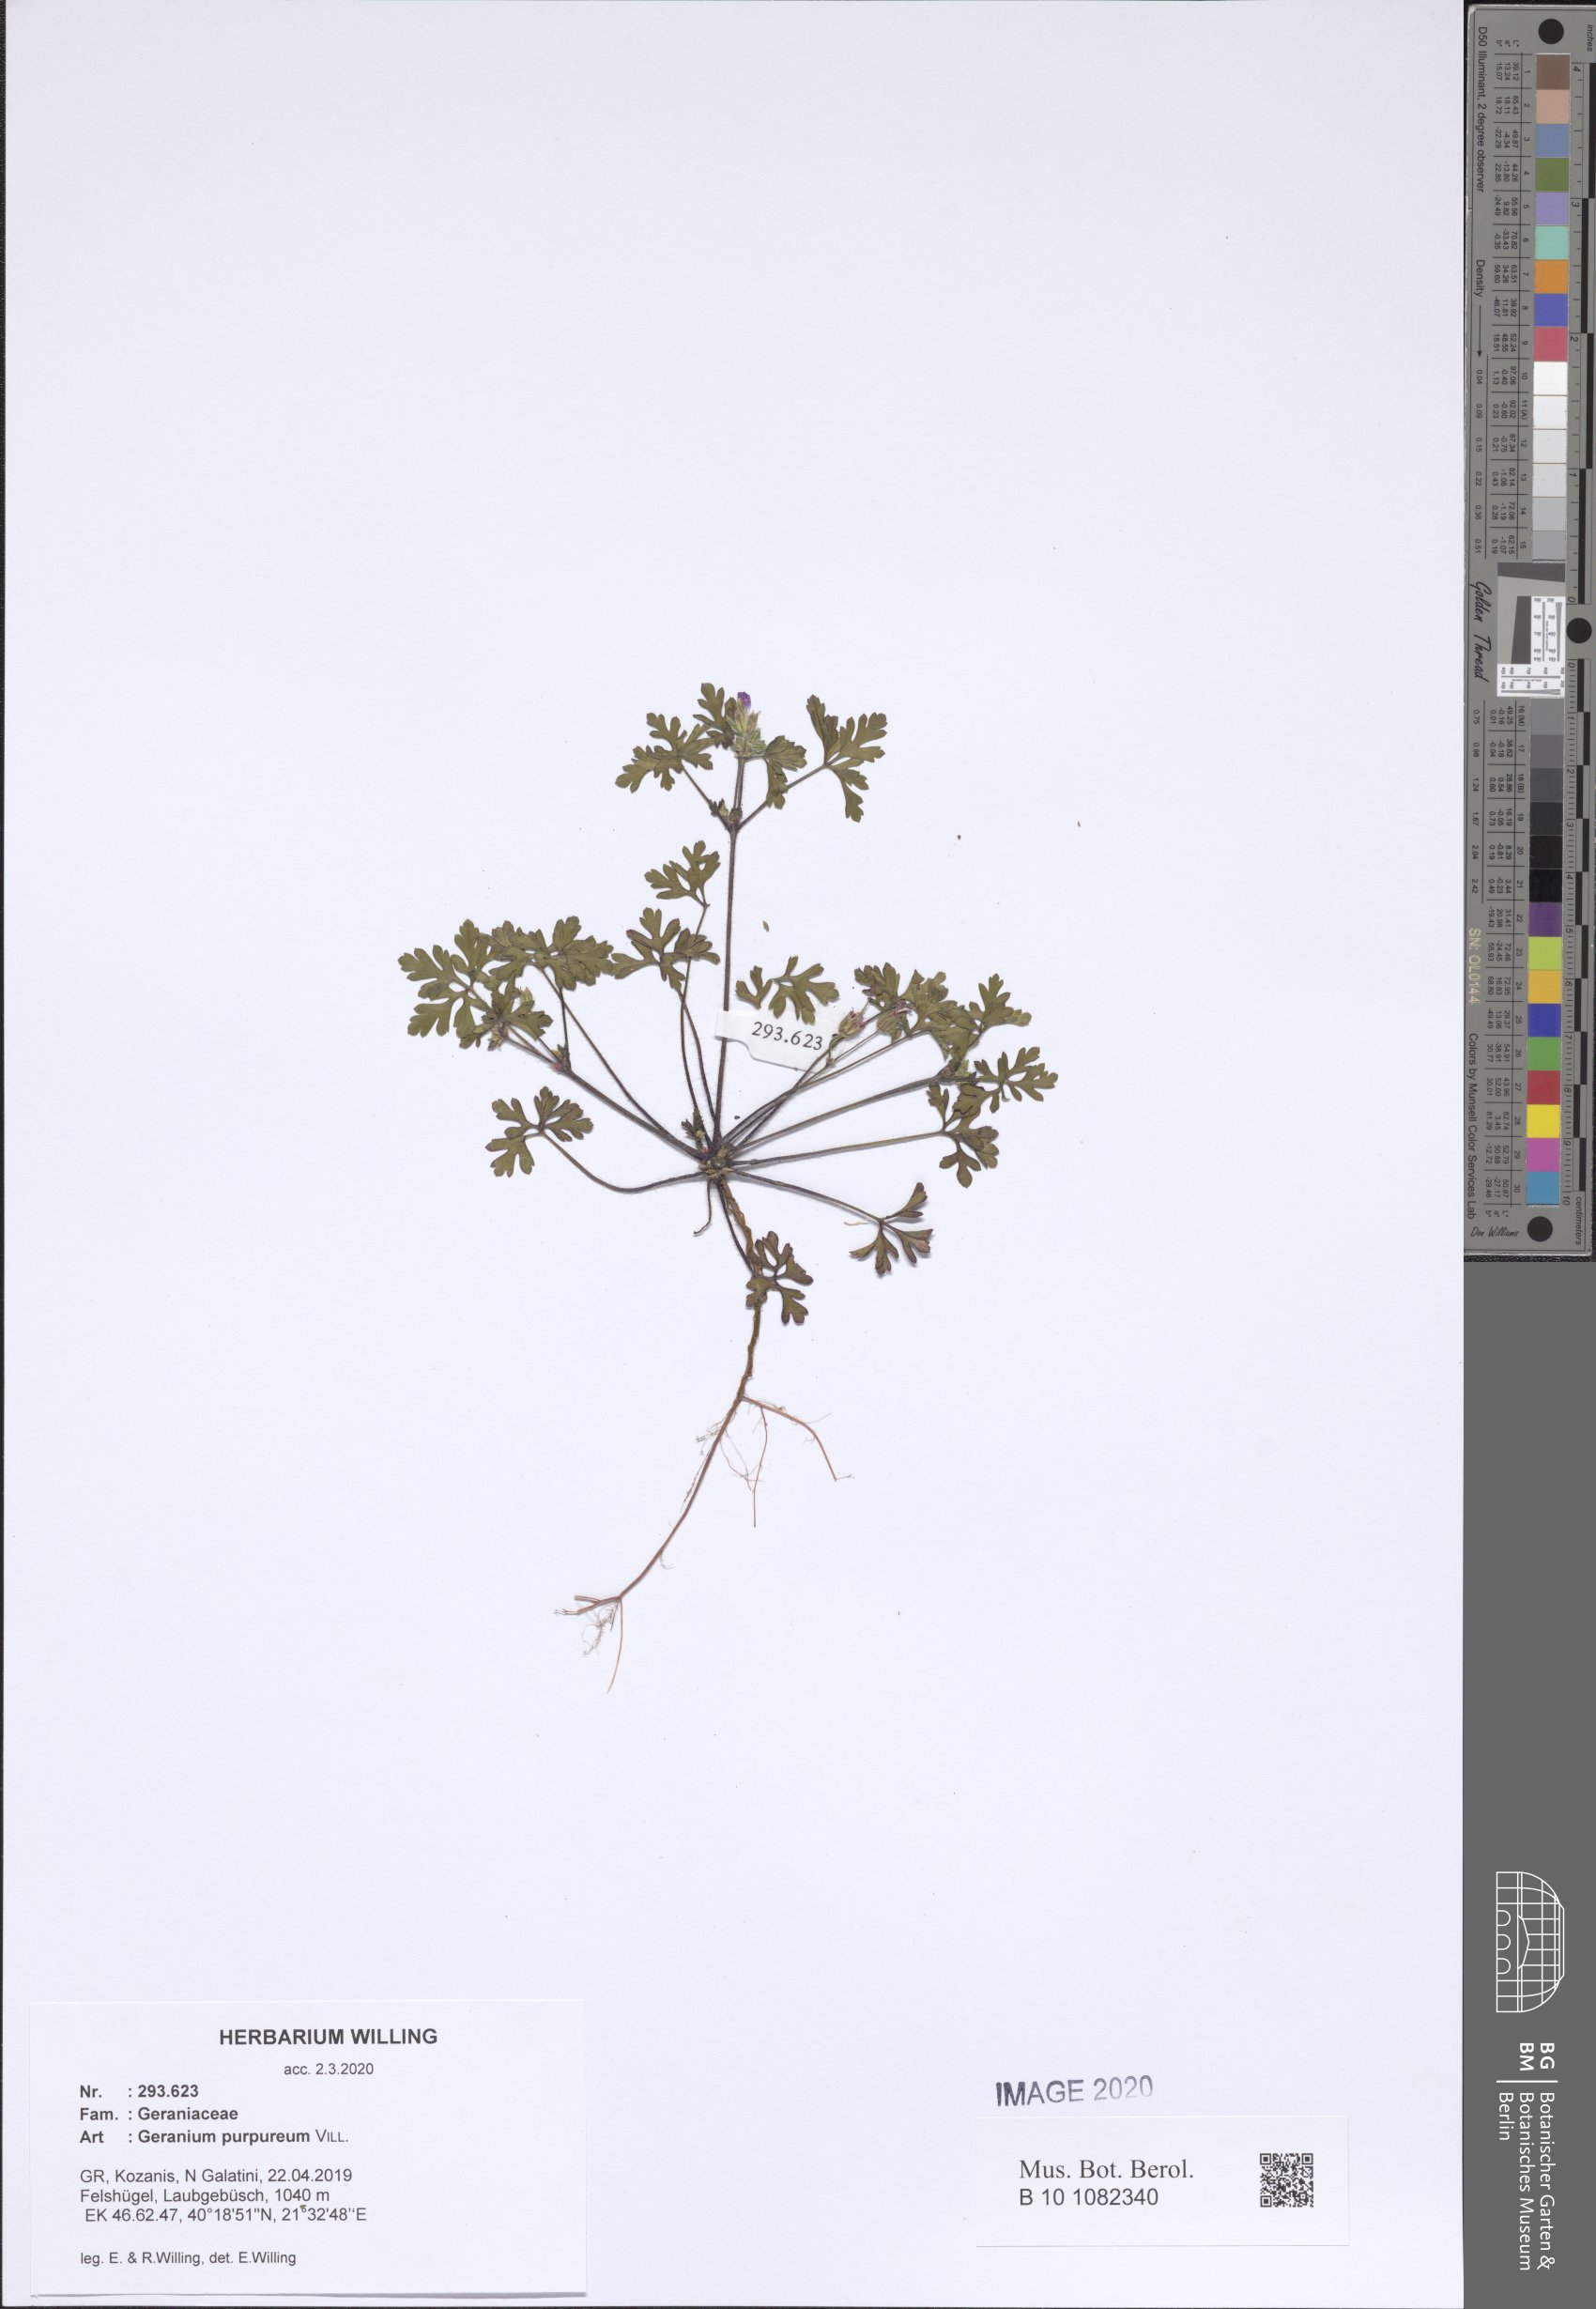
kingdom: Plantae
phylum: Tracheophyta
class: Magnoliopsida
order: Geraniales
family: Geraniaceae
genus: Geranium
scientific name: Geranium purpureum
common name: Little-robin
